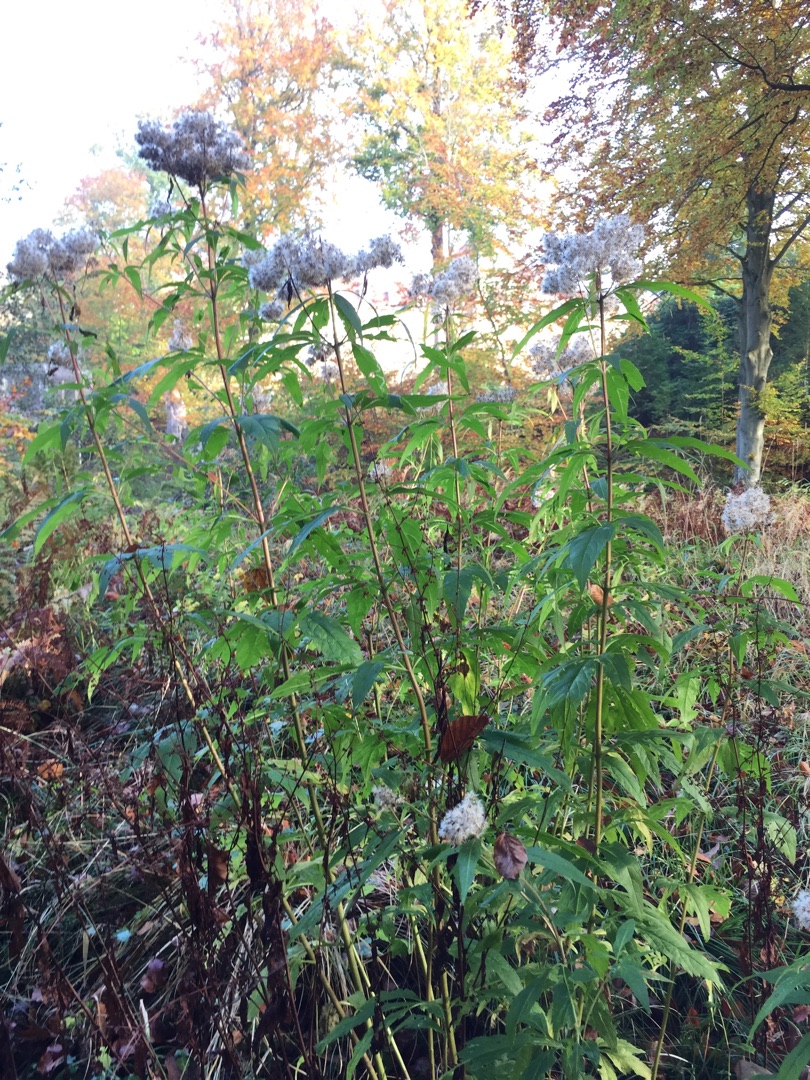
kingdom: Plantae
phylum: Tracheophyta
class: Magnoliopsida
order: Asterales
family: Asteraceae
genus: Eupatorium
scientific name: Eupatorium cannabinum
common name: Hjortetrøst
